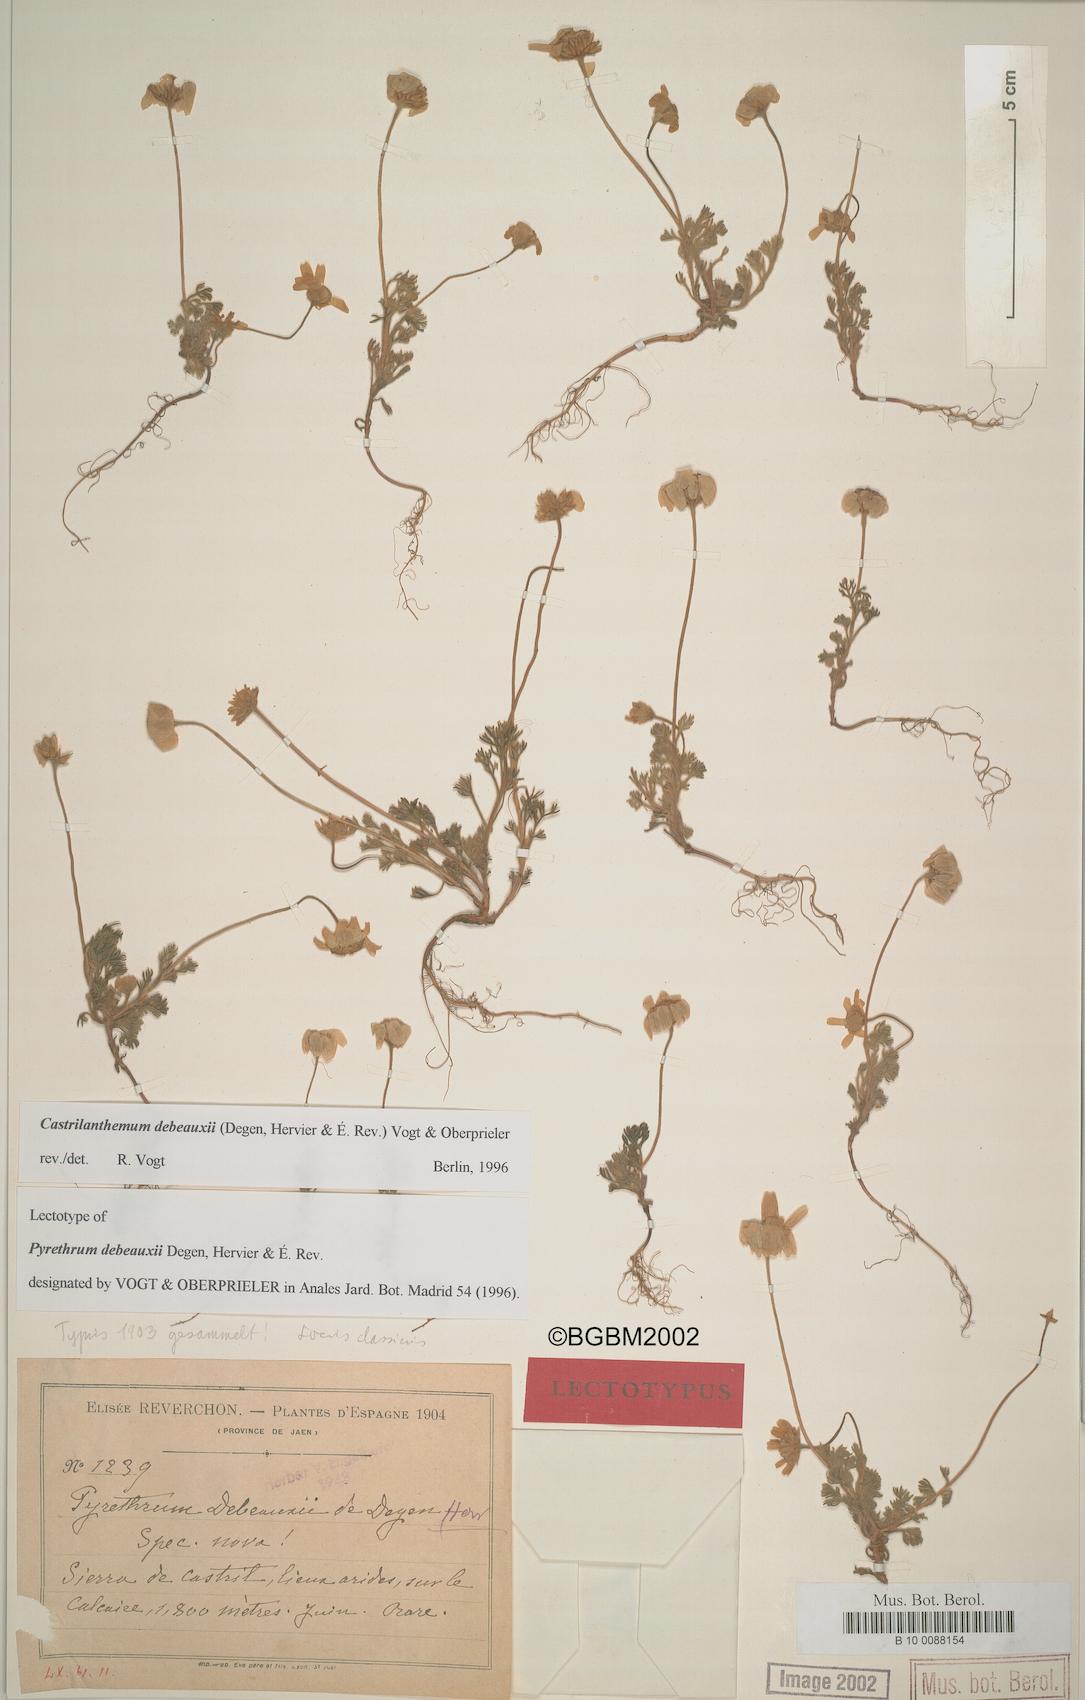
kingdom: Plantae
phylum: Tracheophyta
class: Magnoliopsida
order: Asterales
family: Asteraceae
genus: Castrilanthemum
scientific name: Castrilanthemum debeauxii
